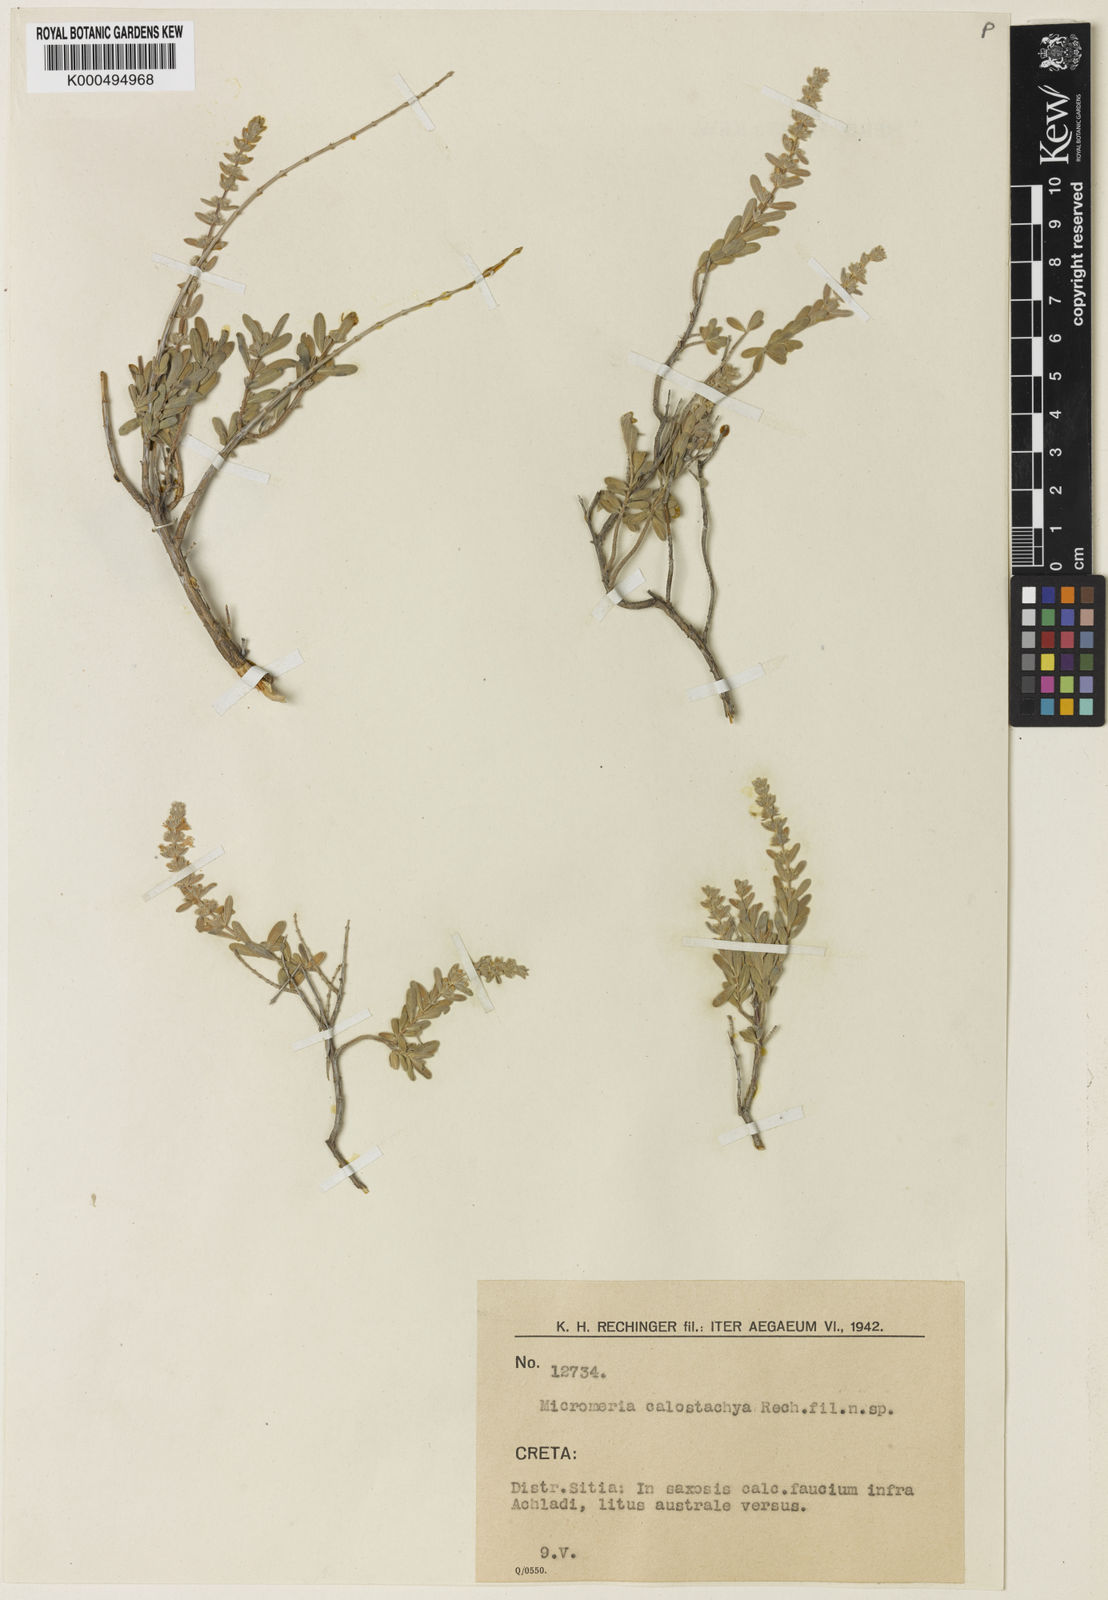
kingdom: Plantae
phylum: Tracheophyta
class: Magnoliopsida
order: Lamiales
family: Lamiaceae
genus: Thymbra
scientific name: Thymbra calostachya
